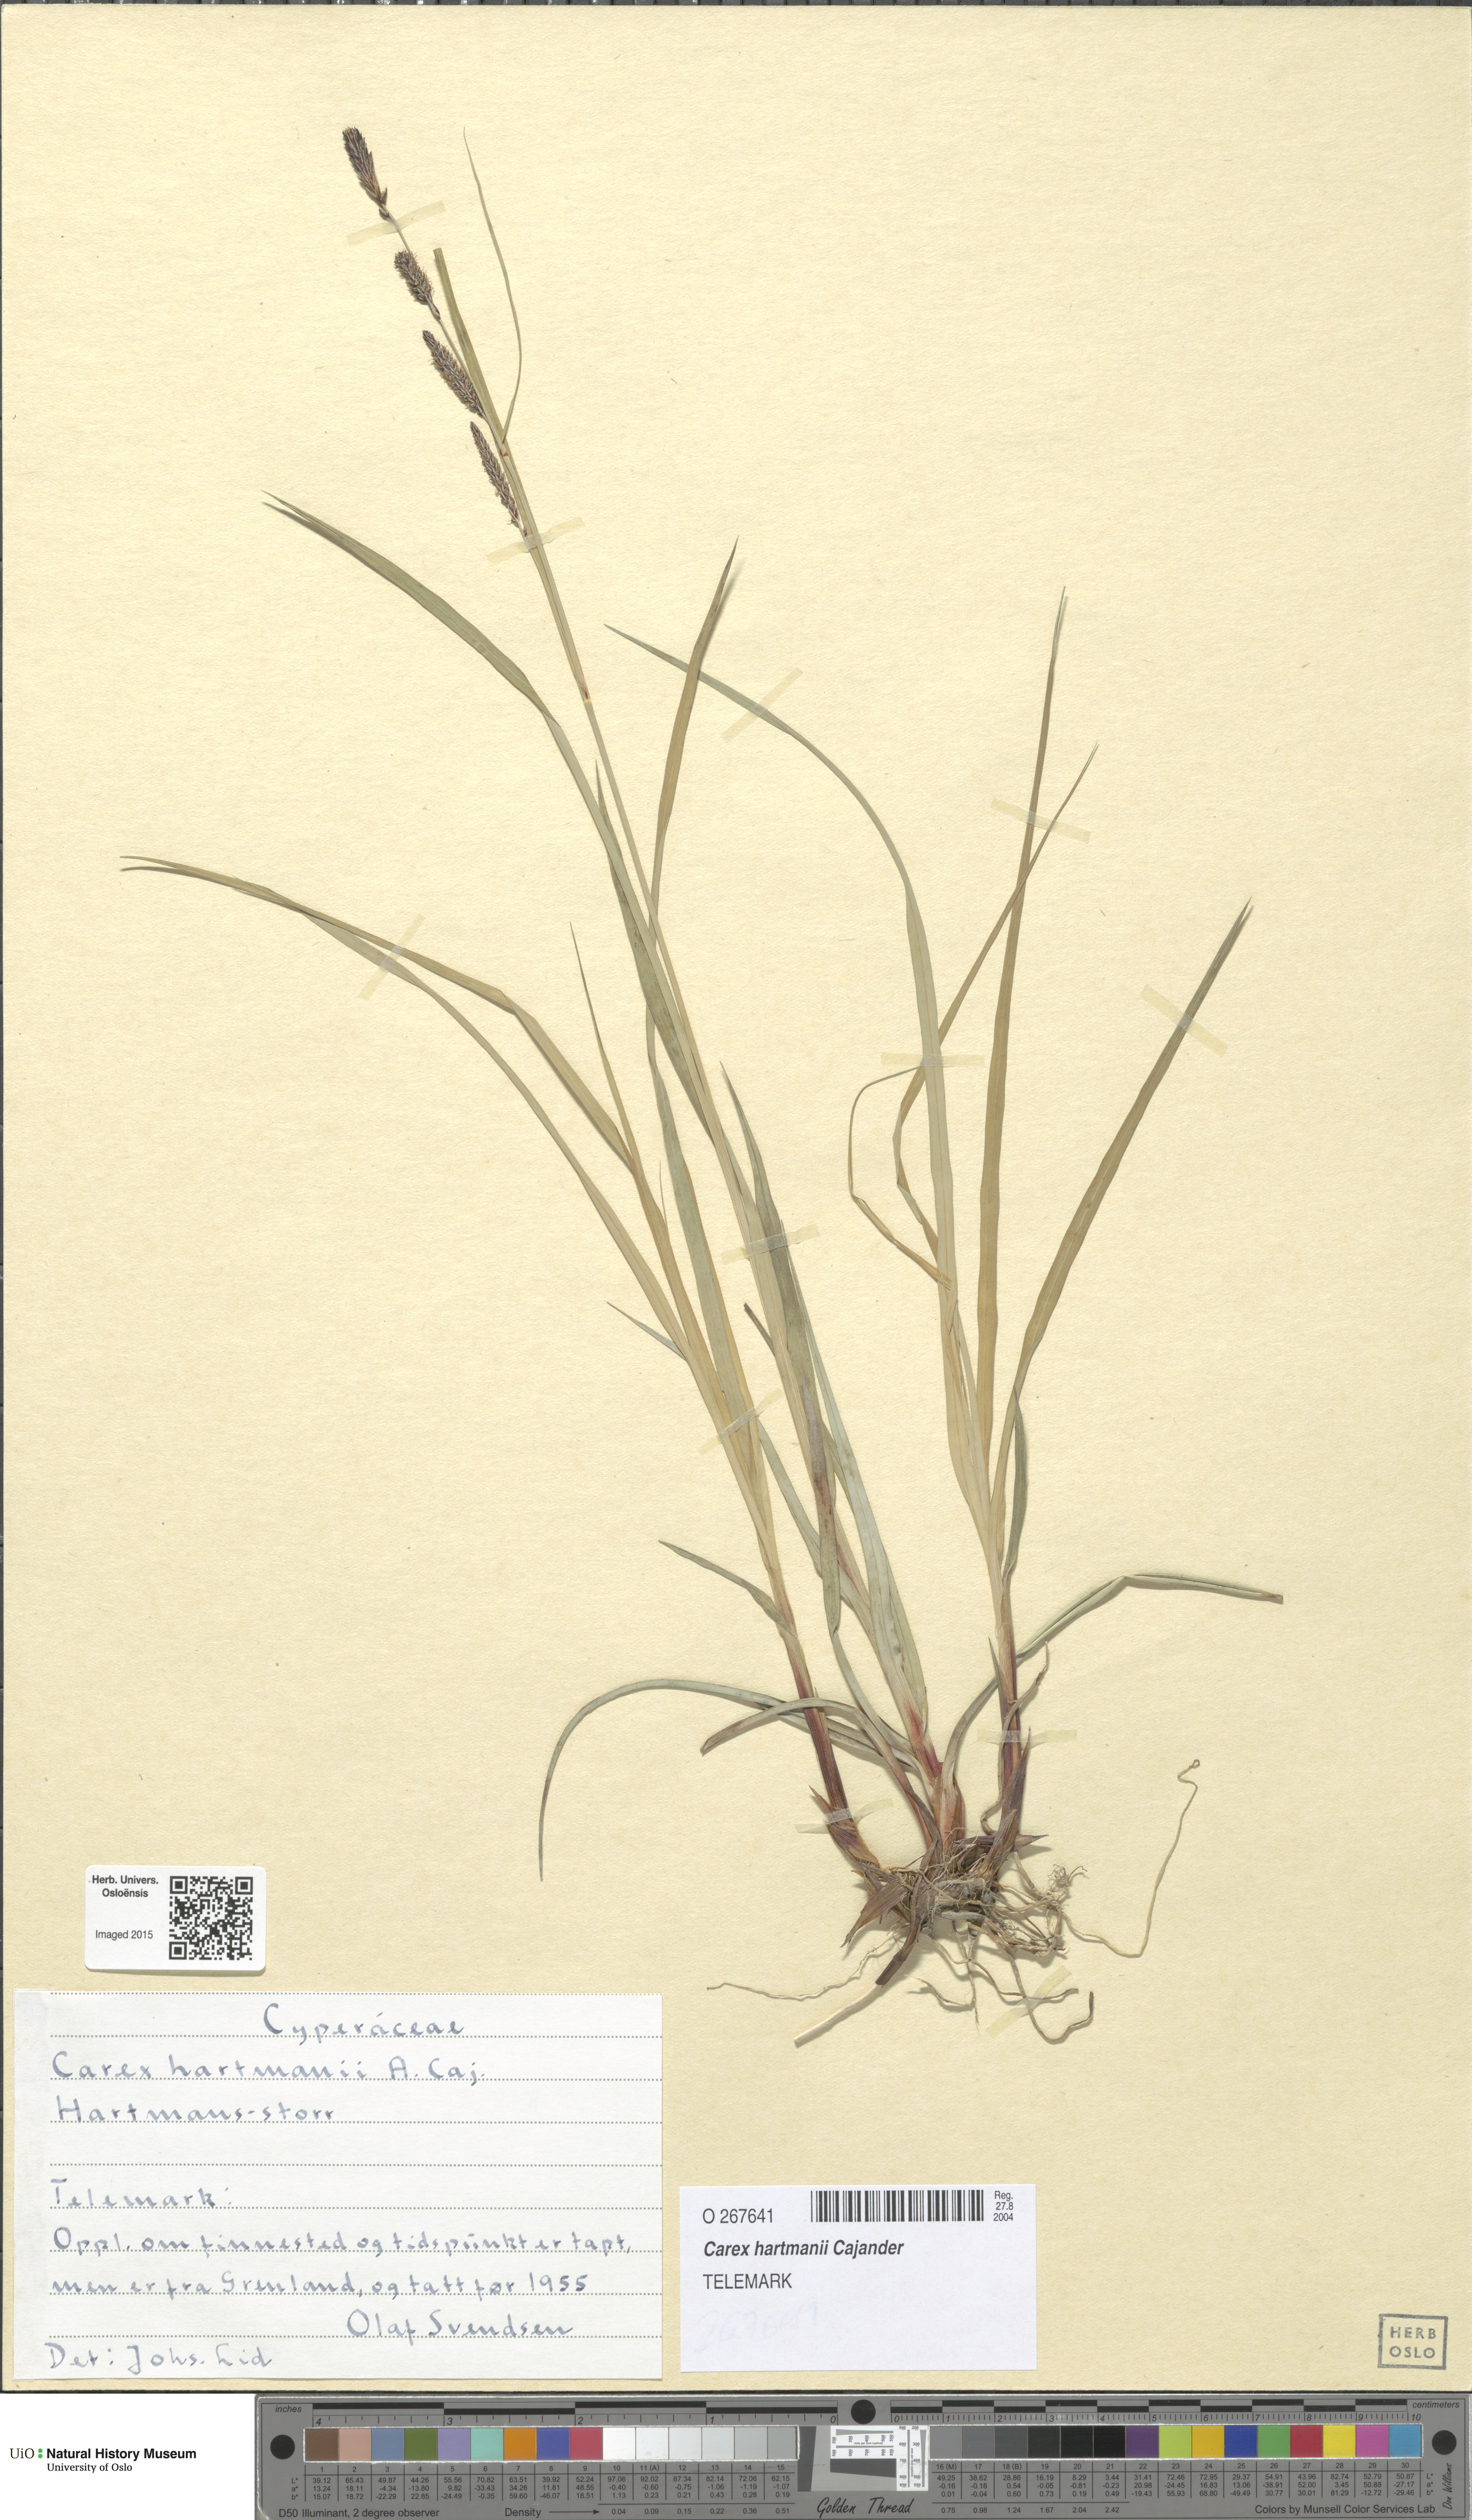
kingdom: Plantae
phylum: Tracheophyta
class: Liliopsida
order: Poales
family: Cyperaceae
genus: Carex
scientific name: Carex flacca
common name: Glaucous sedge
